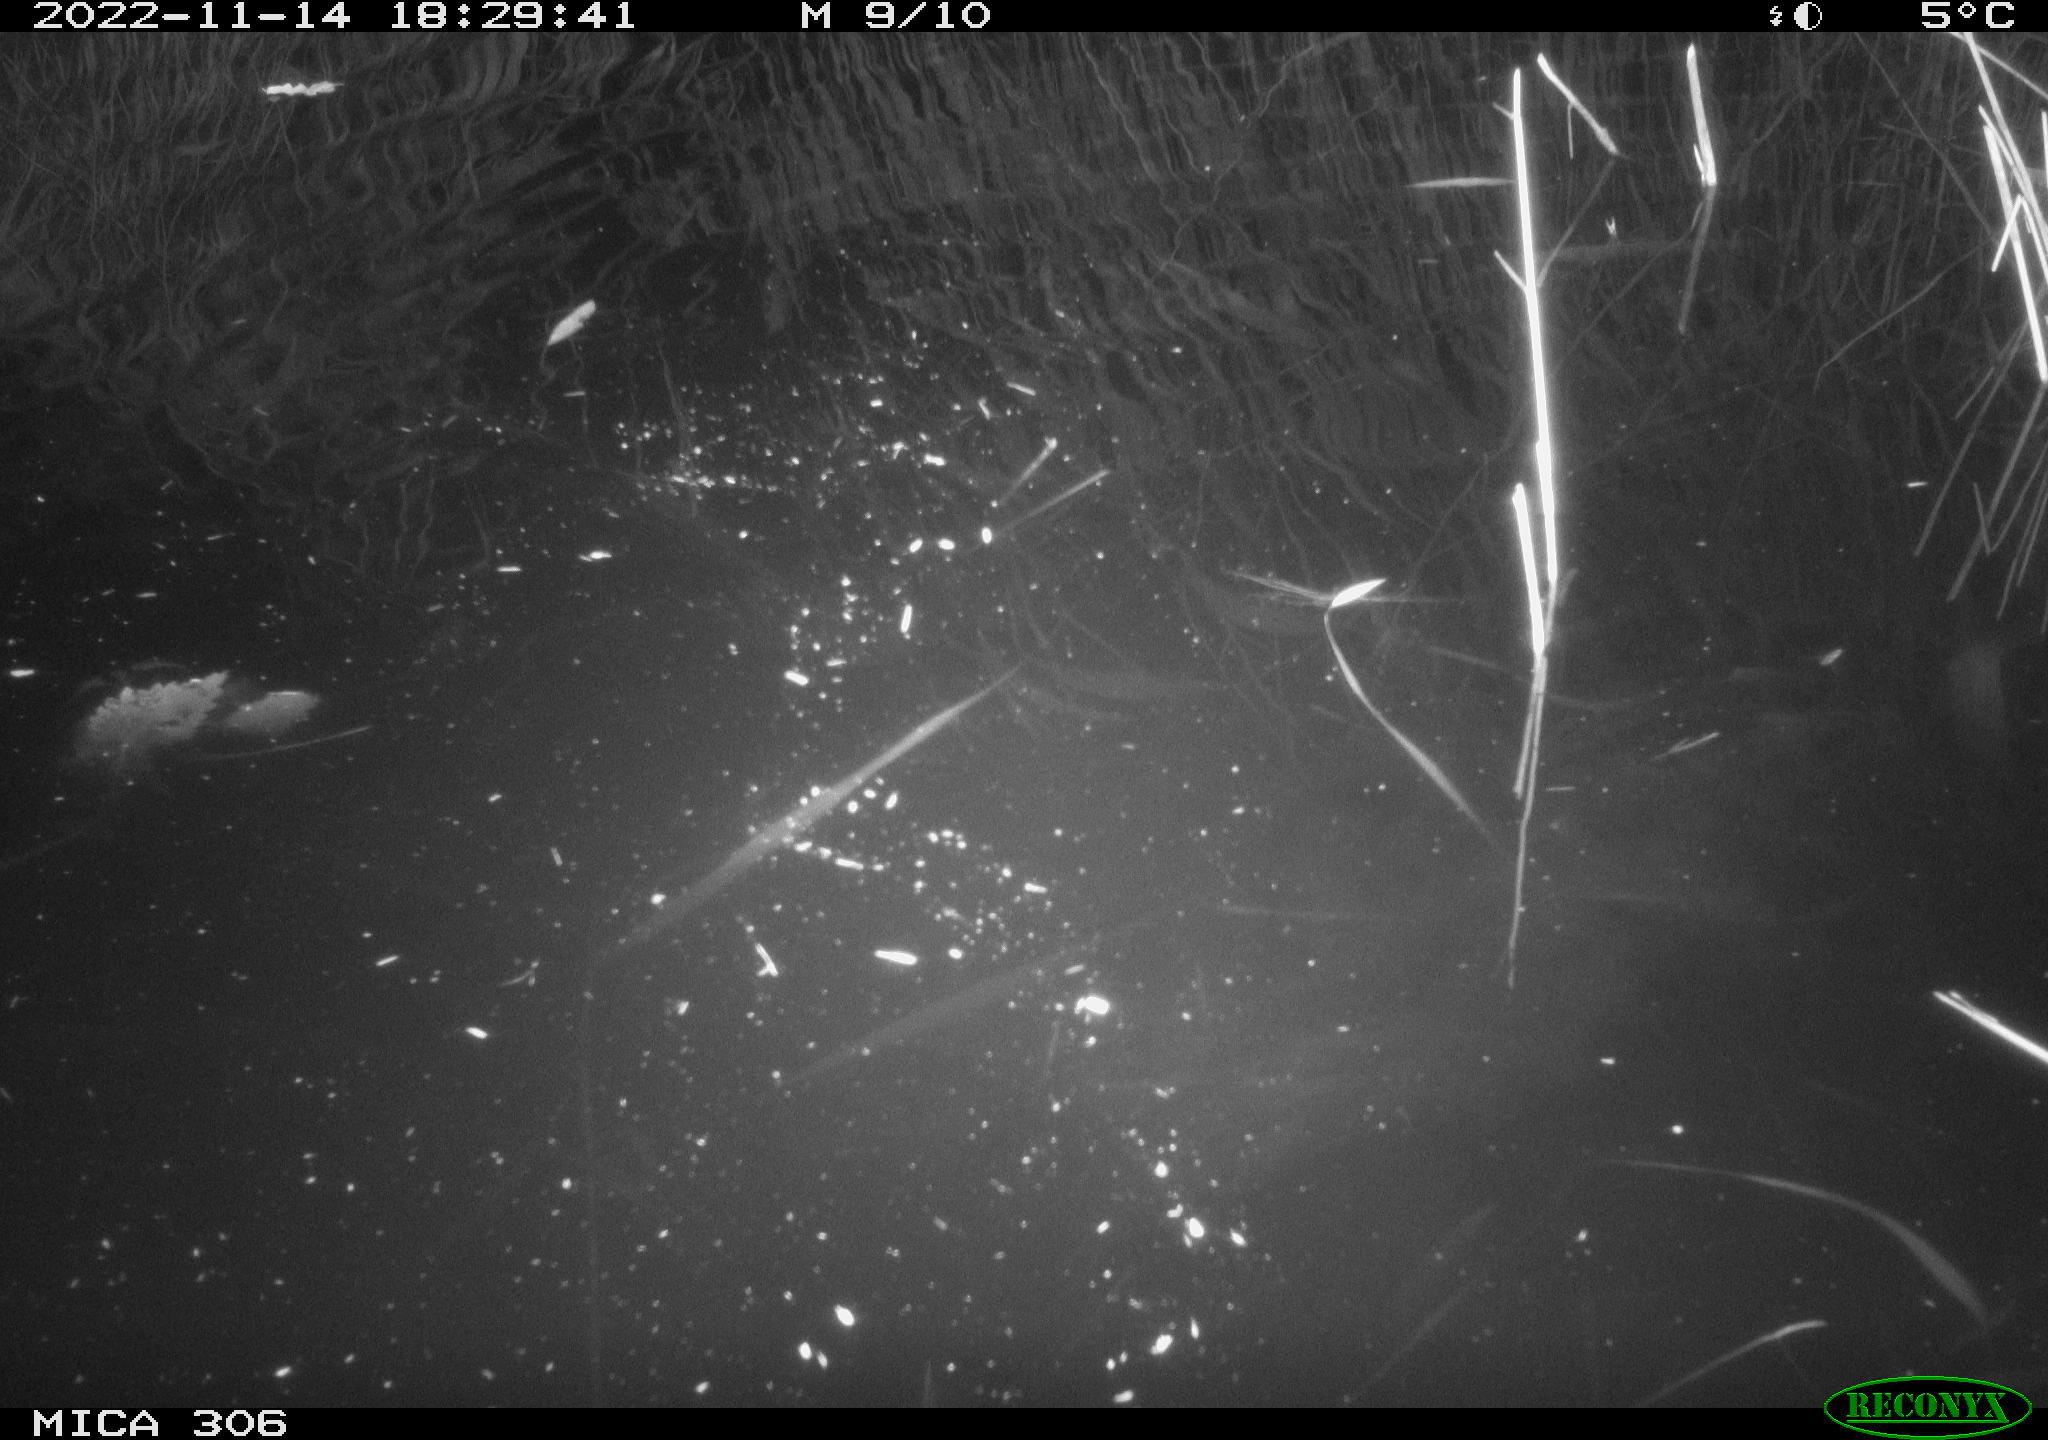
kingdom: Animalia
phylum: Chordata
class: Mammalia
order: Rodentia
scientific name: Rodentia
